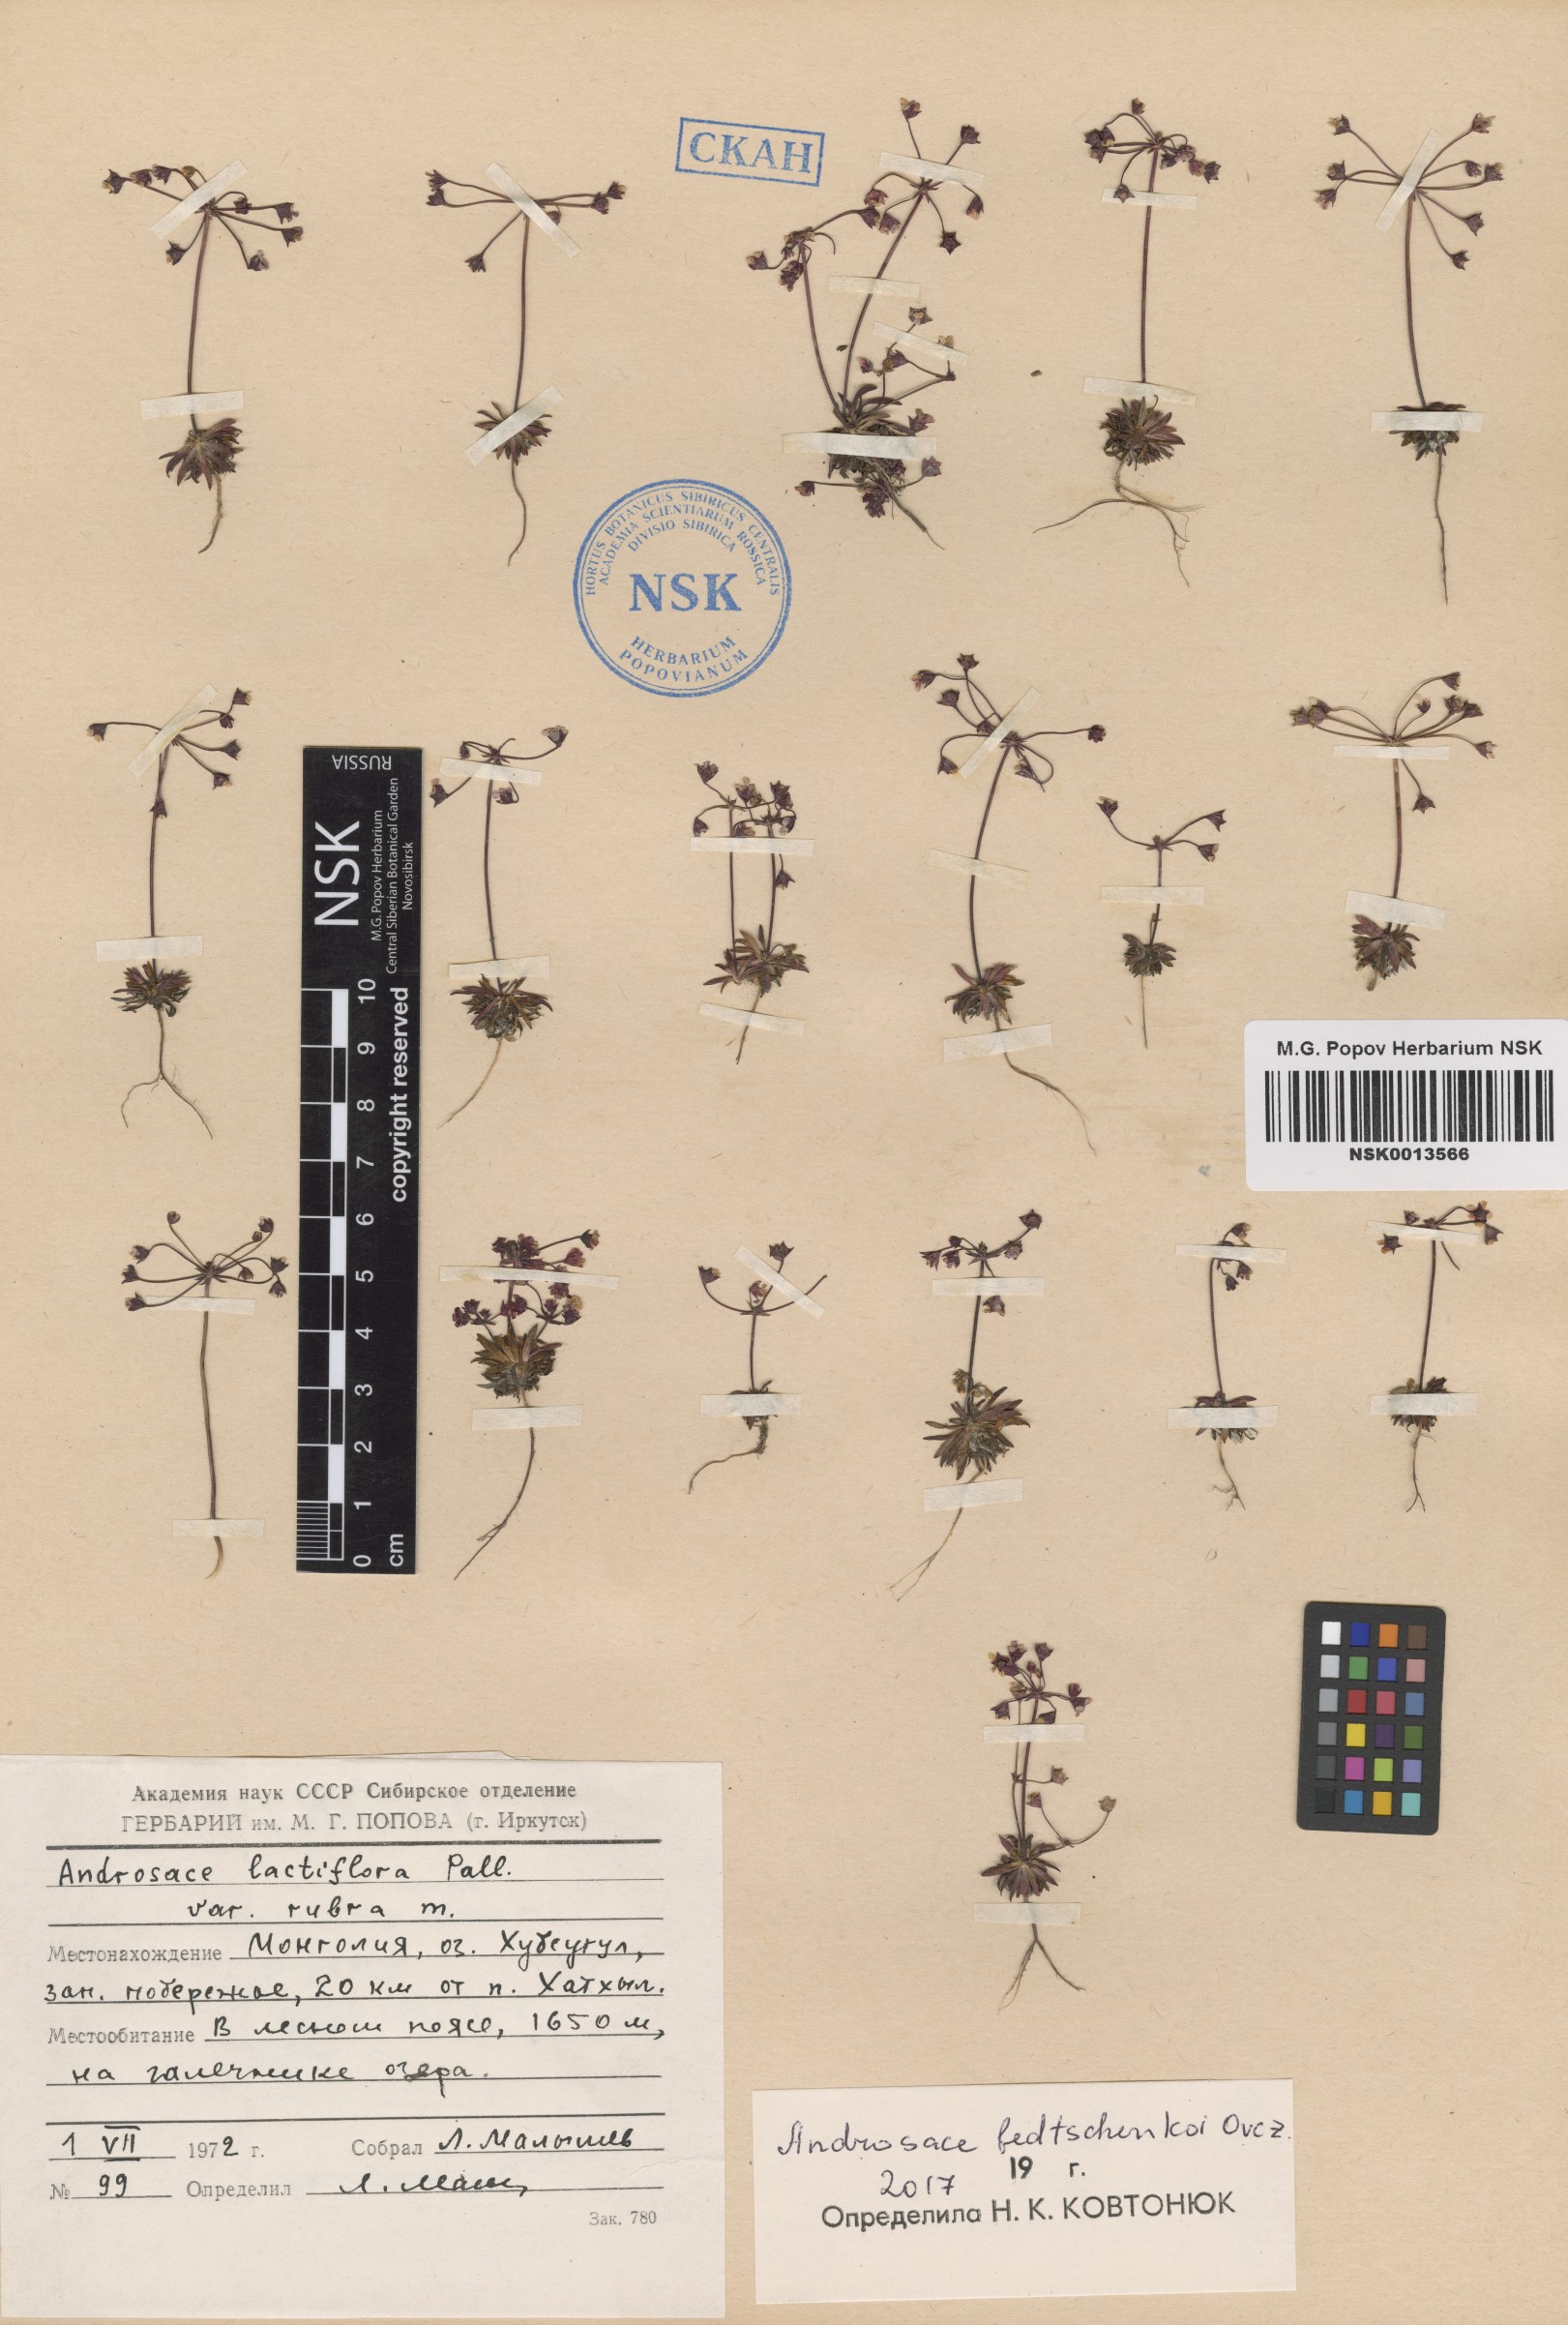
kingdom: Plantae
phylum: Tracheophyta
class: Magnoliopsida
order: Ericales
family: Primulaceae
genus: Androsace
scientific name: Androsace fedtschenkoi
